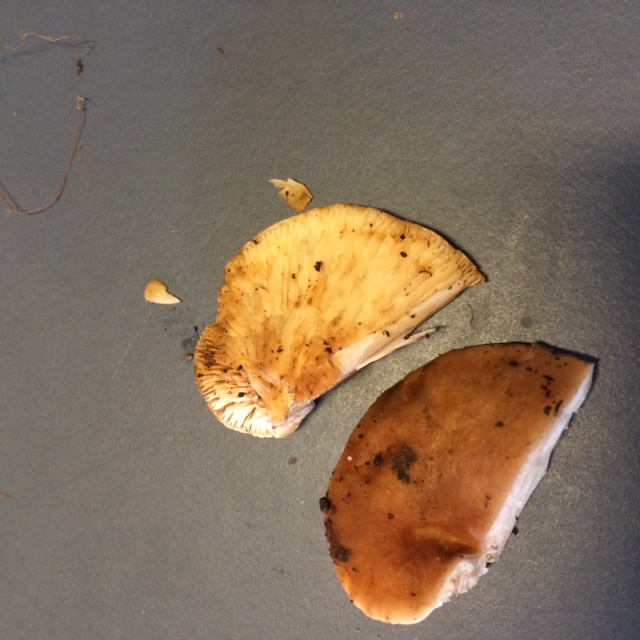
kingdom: Fungi
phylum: Basidiomycota
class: Agaricomycetes
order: Russulales
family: Russulaceae
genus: Lactarius
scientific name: Lactarius subdulcis
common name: sødlig mælkehat
